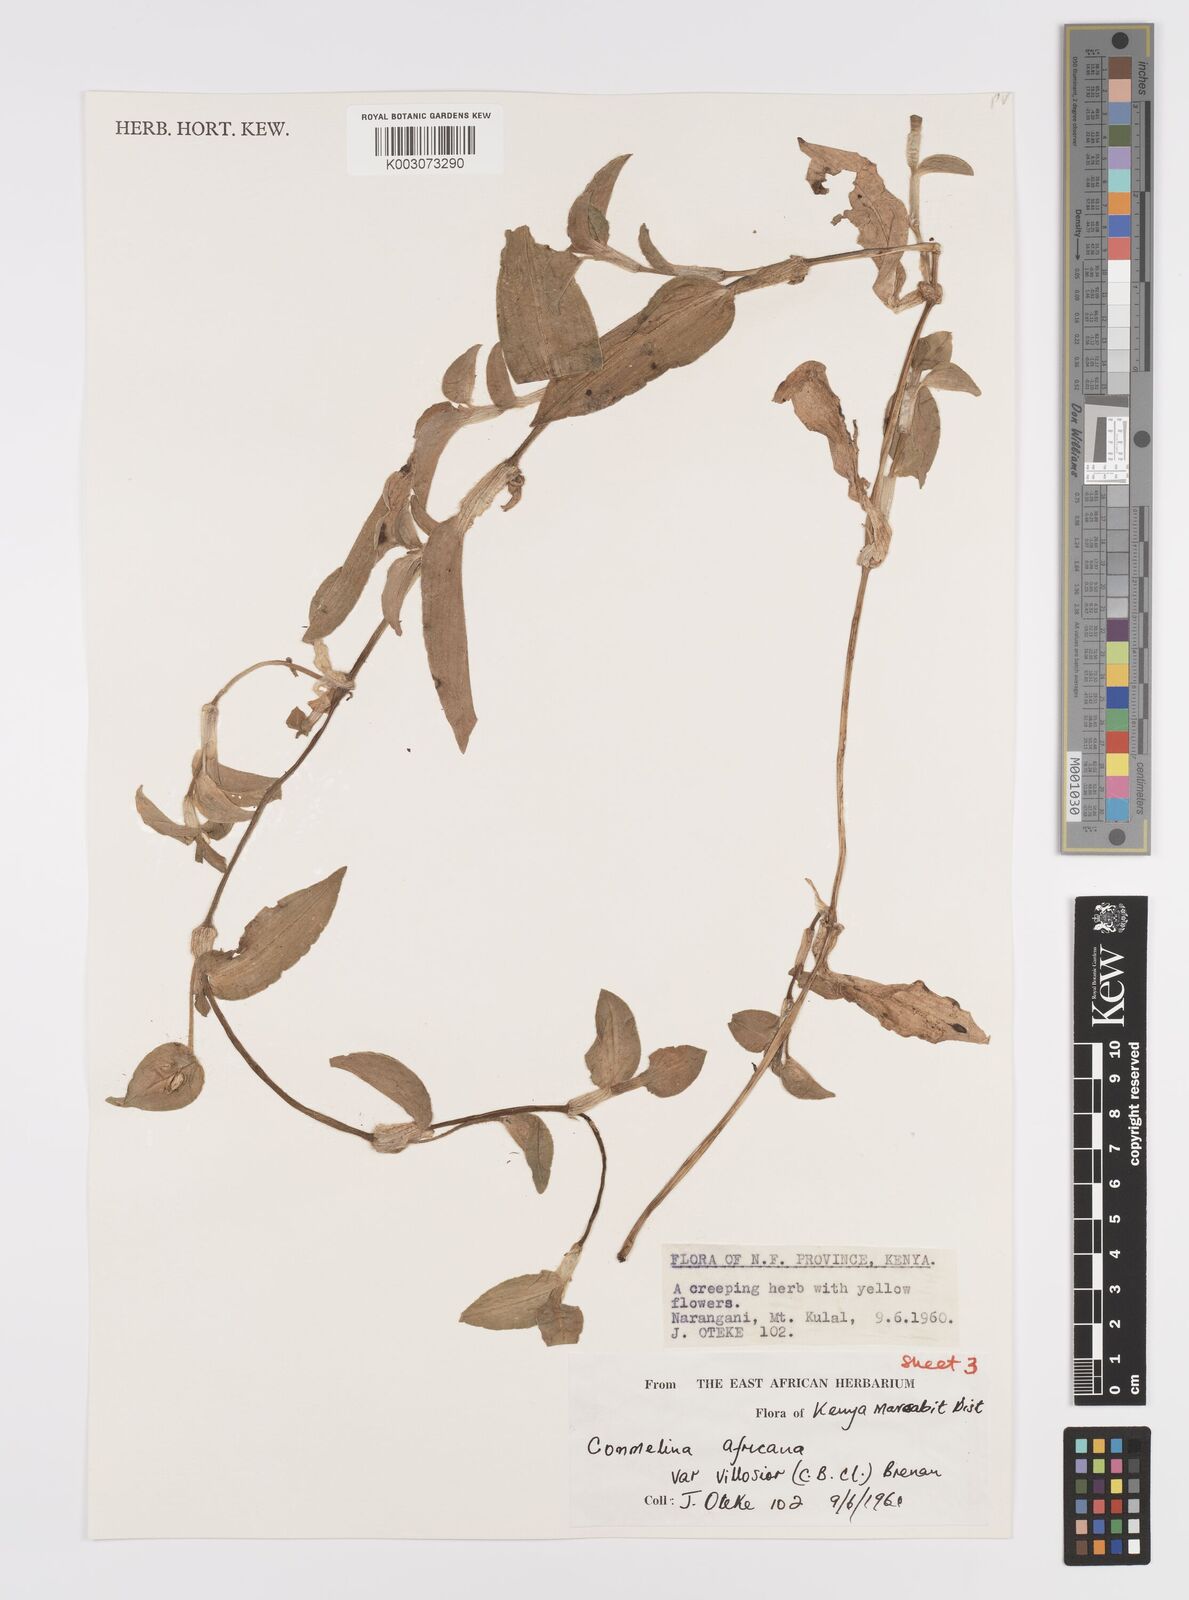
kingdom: Plantae
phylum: Tracheophyta
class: Liliopsida
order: Commelinales
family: Commelinaceae
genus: Commelina
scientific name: Commelina africana
